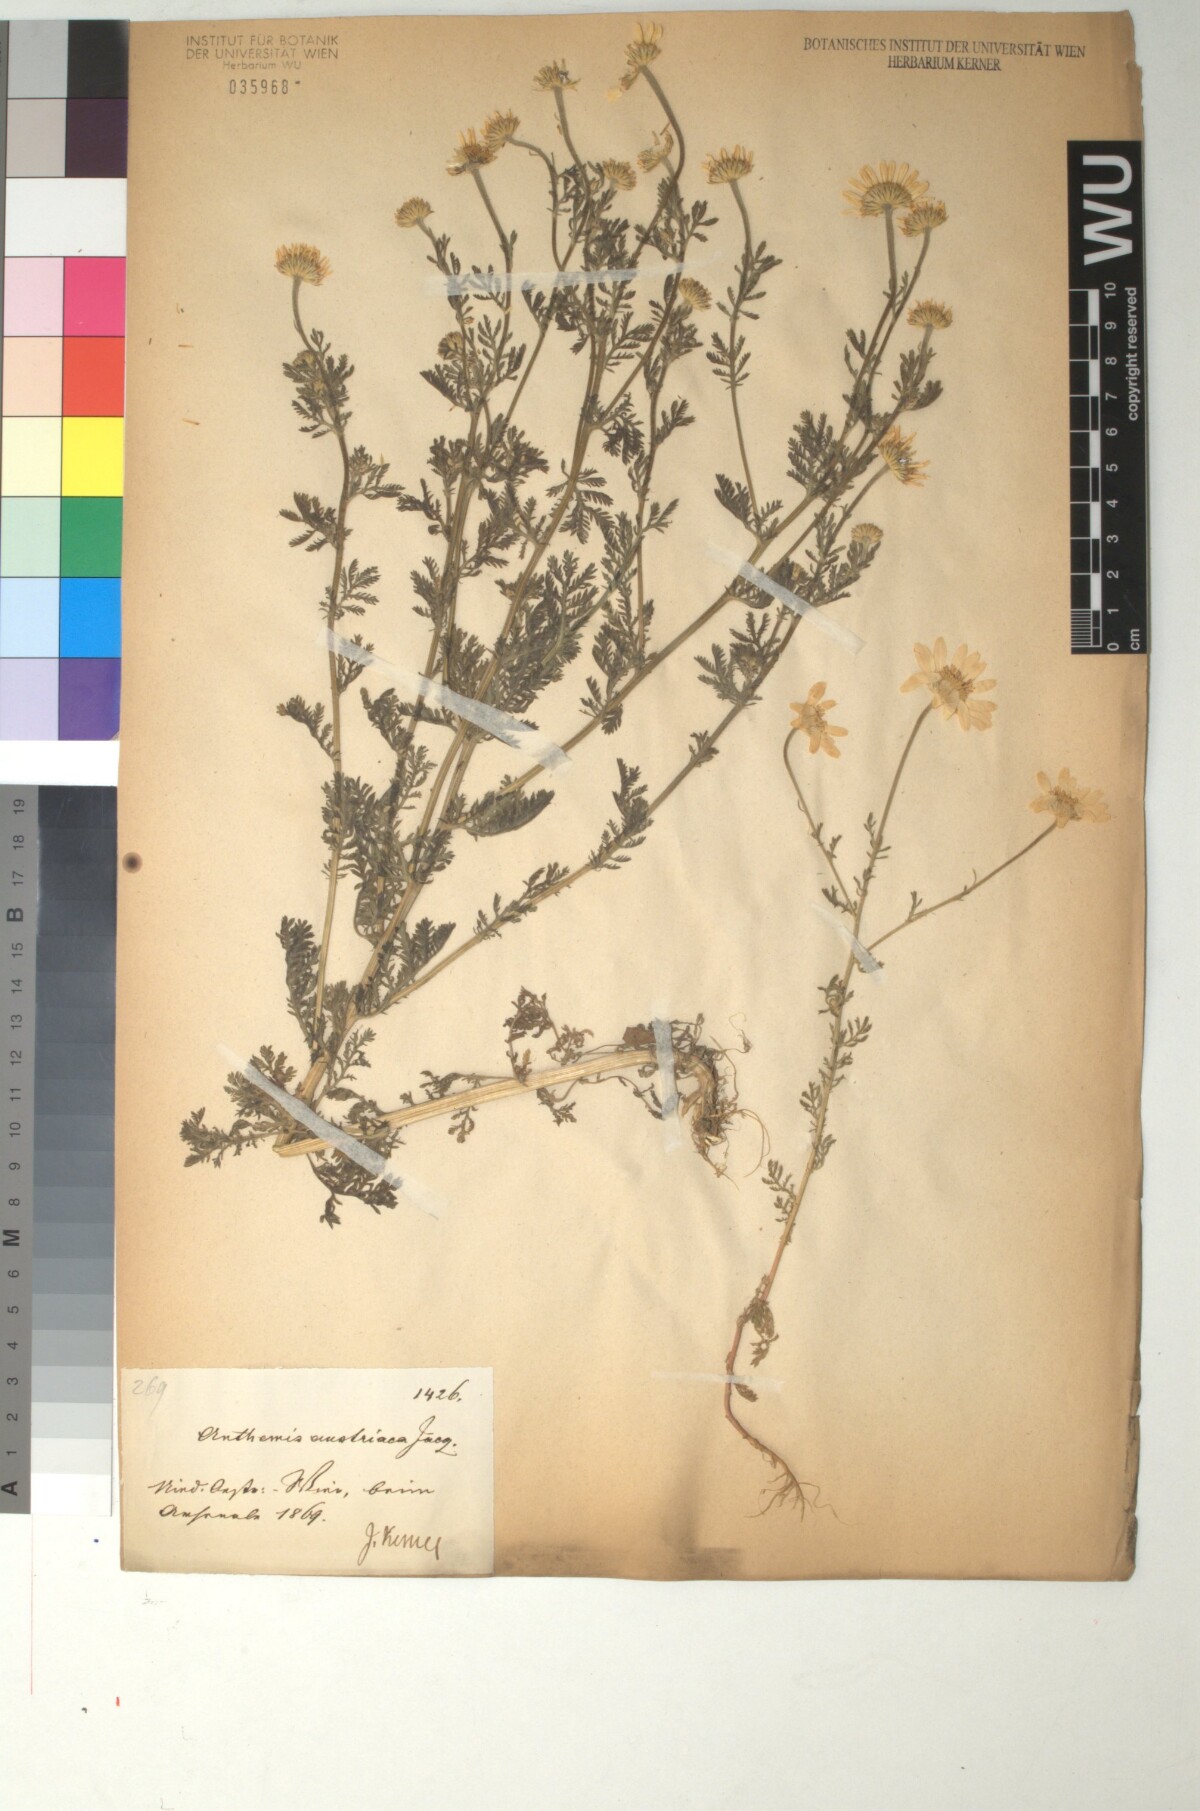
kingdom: Plantae
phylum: Tracheophyta
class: Magnoliopsida
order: Asterales
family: Asteraceae
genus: Cota
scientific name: Cota austriaca
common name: Austrian chamomile
